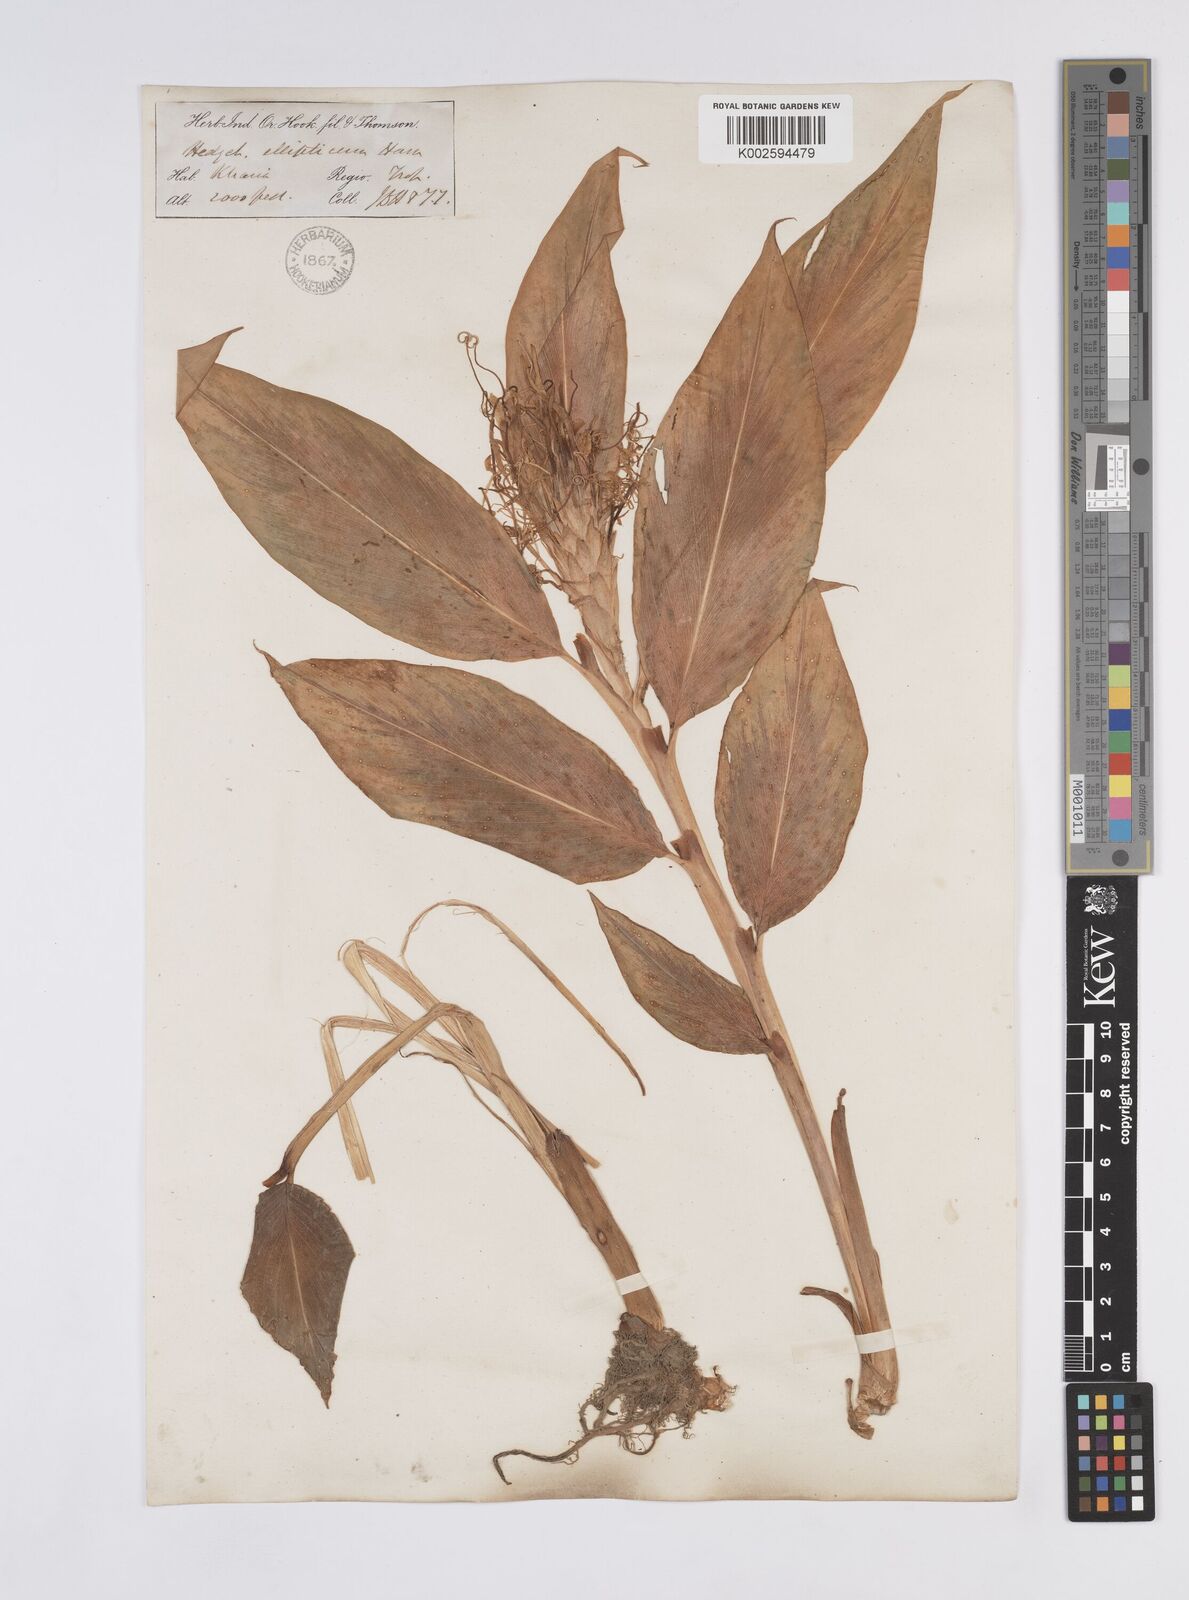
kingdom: Plantae
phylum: Tracheophyta
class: Liliopsida
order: Zingiberales
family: Zingiberaceae
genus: Hedychium
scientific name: Hedychium ellipticum
